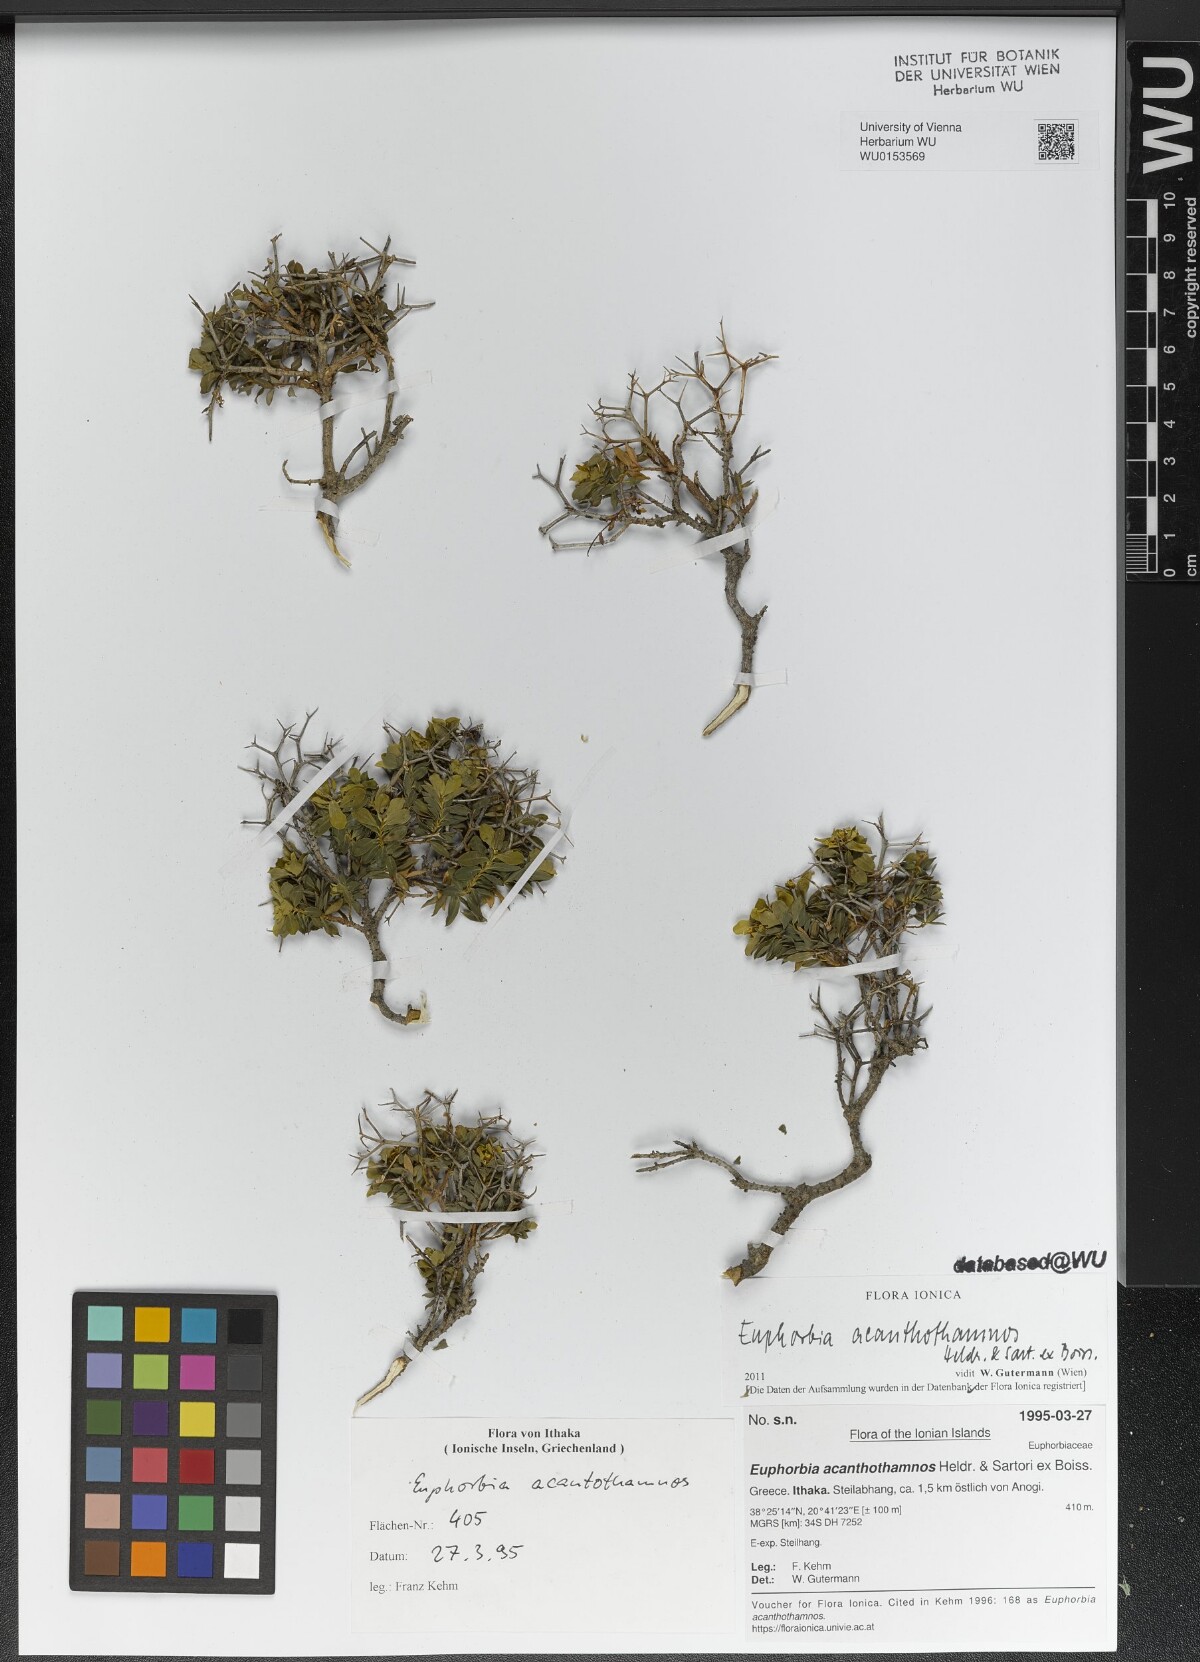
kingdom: Plantae
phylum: Tracheophyta
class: Magnoliopsida
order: Malpighiales
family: Euphorbiaceae
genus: Euphorbia
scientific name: Euphorbia acanthothamnos
